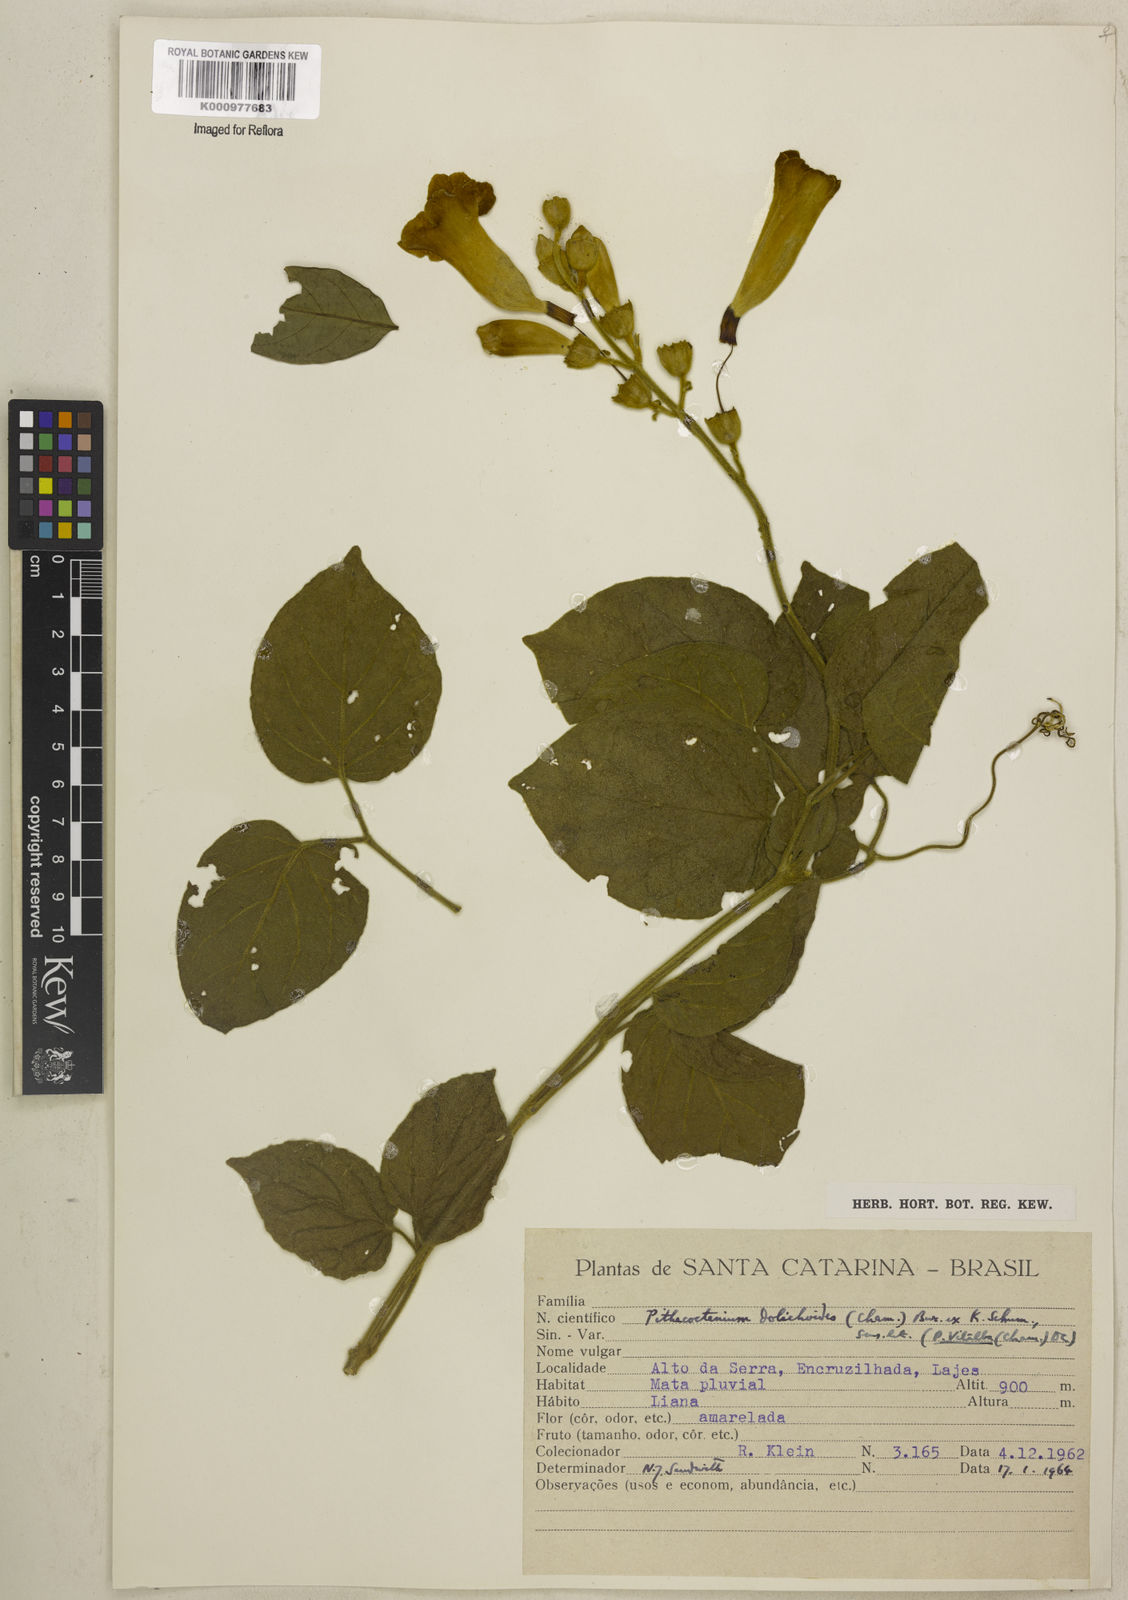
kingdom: Plantae
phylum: Tracheophyta
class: Magnoliopsida
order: Lamiales
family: Bignoniaceae
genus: Amphilophium
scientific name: Amphilophium dolichoides
